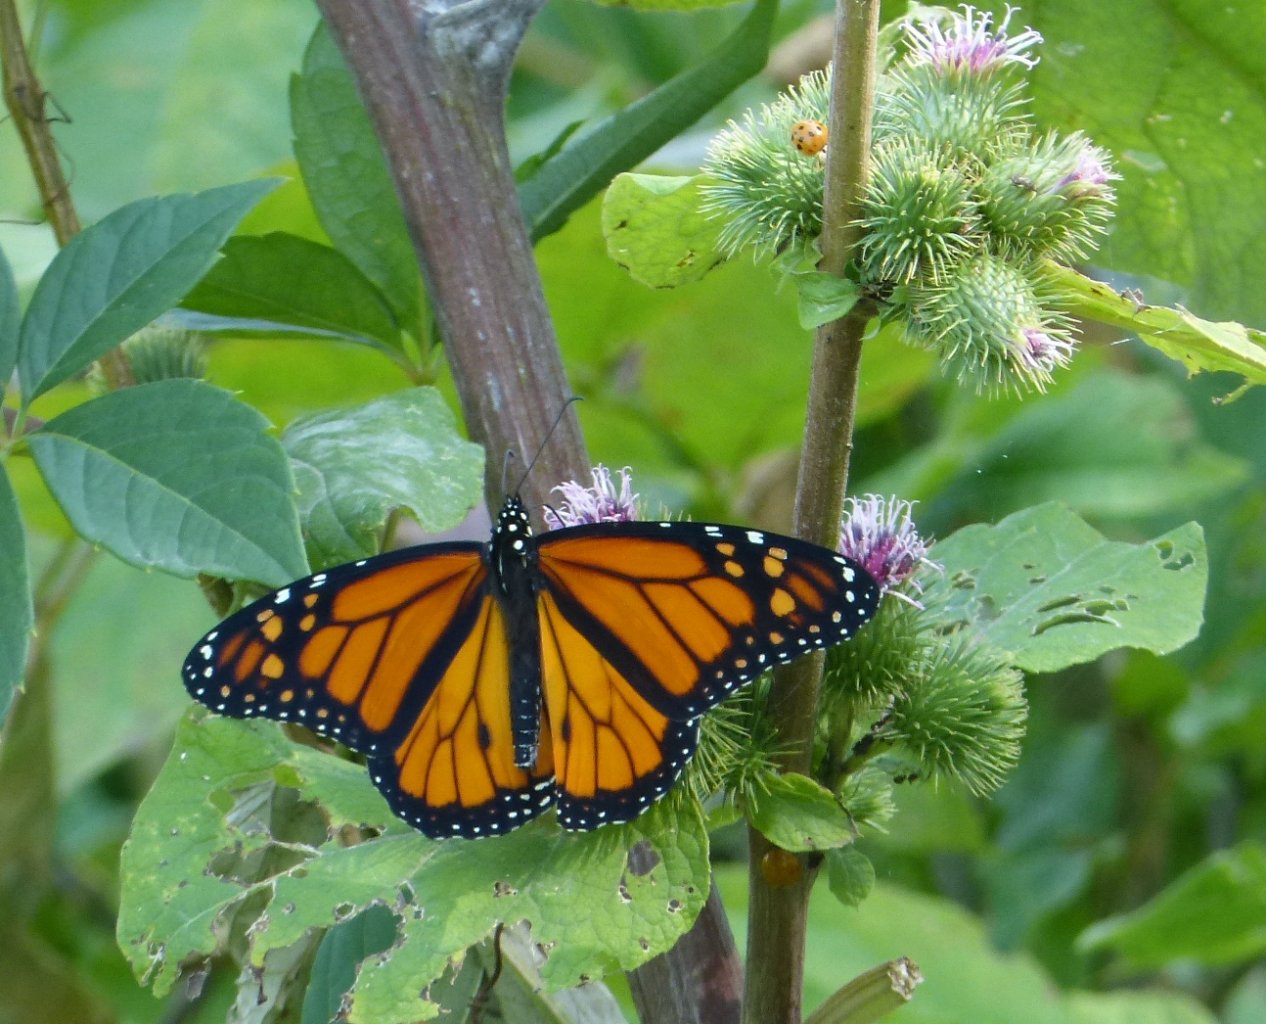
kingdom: Animalia
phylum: Arthropoda
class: Insecta
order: Lepidoptera
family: Nymphalidae
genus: Danaus
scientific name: Danaus plexippus
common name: Monarch
